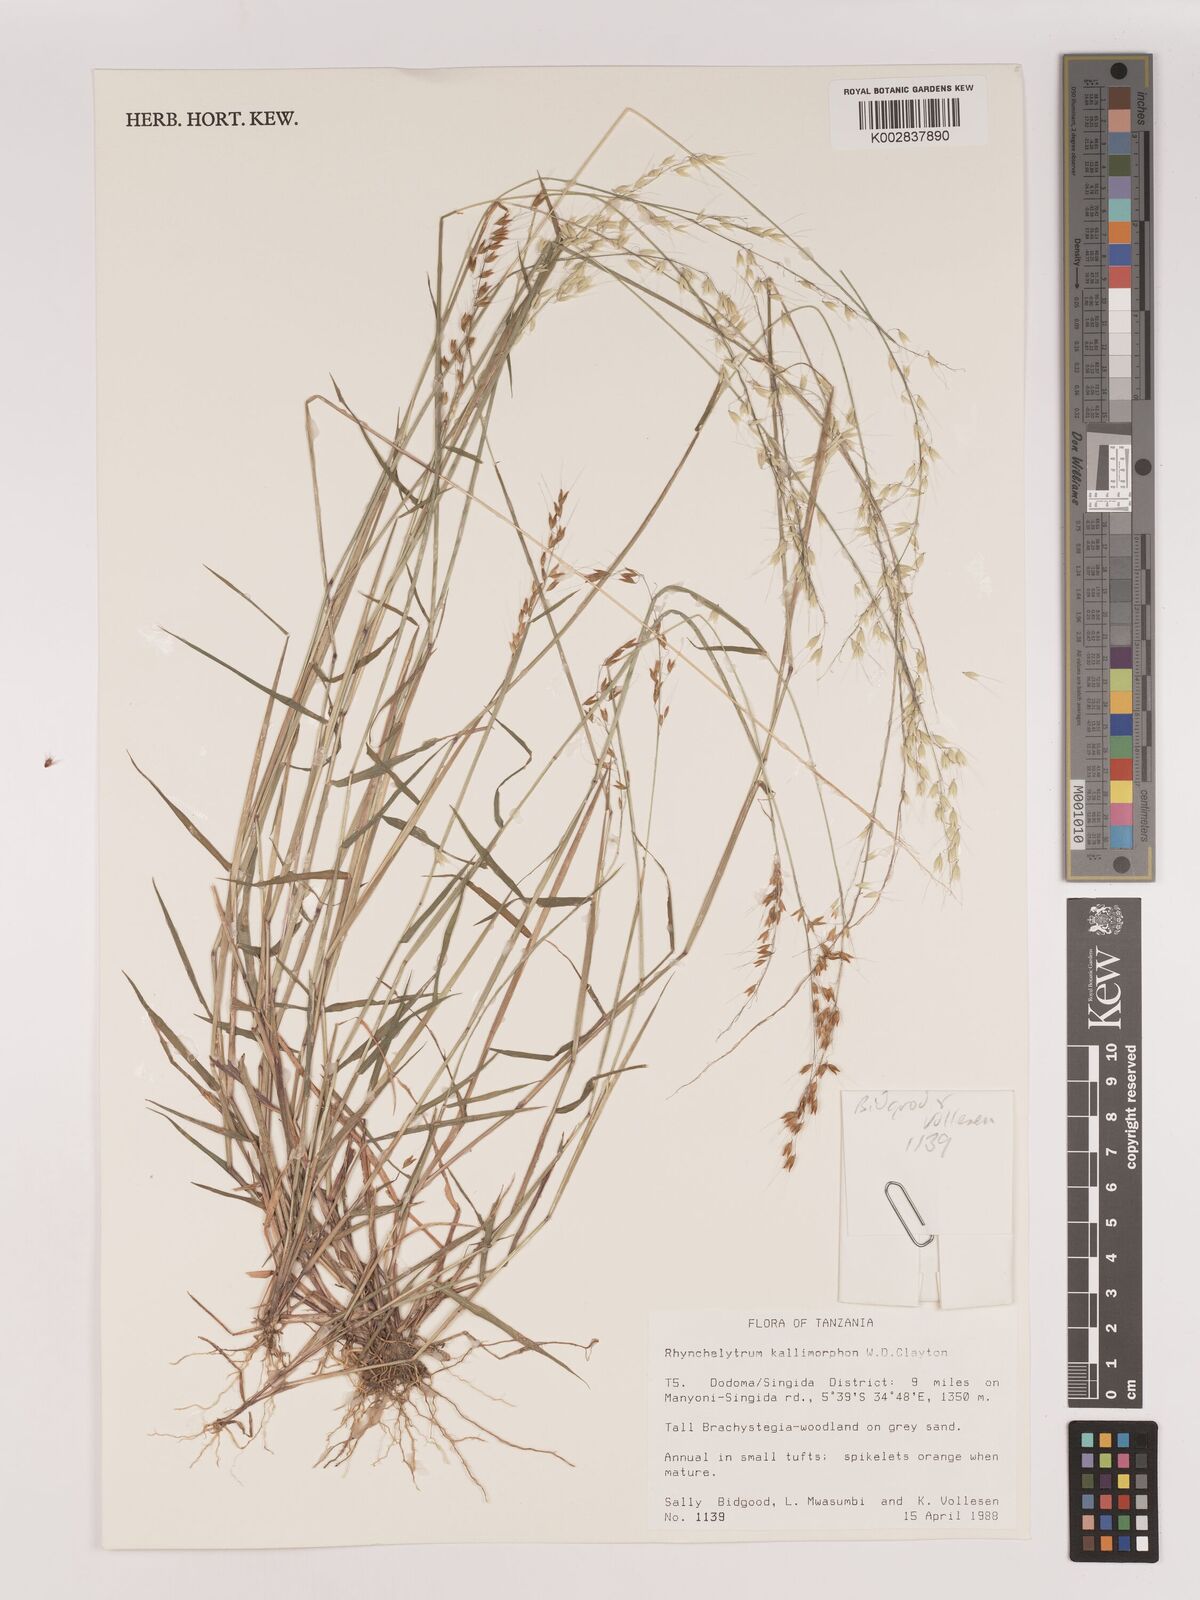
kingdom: Plantae
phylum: Tracheophyta
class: Liliopsida
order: Poales
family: Poaceae
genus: Melinis
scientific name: Melinis kallimorpha
